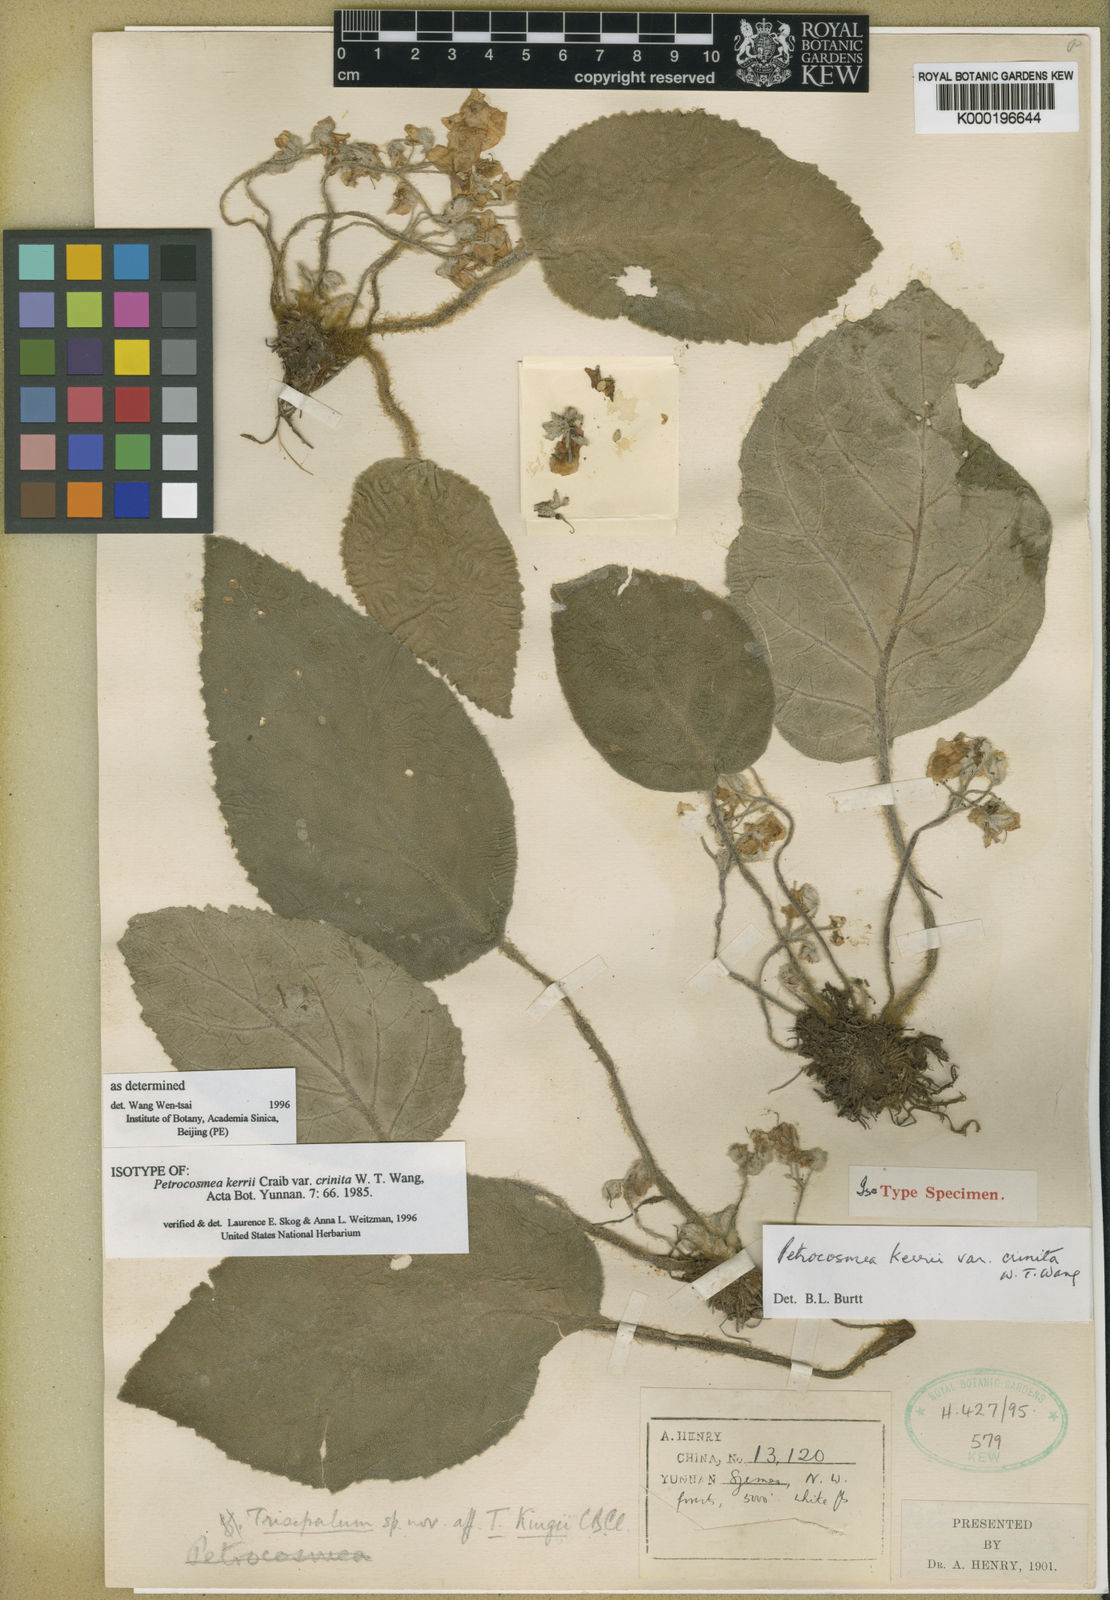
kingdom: Plantae
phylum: Tracheophyta
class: Magnoliopsida
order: Lamiales
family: Gesneriaceae
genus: Petrocosmea
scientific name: Petrocosmea kerrii
